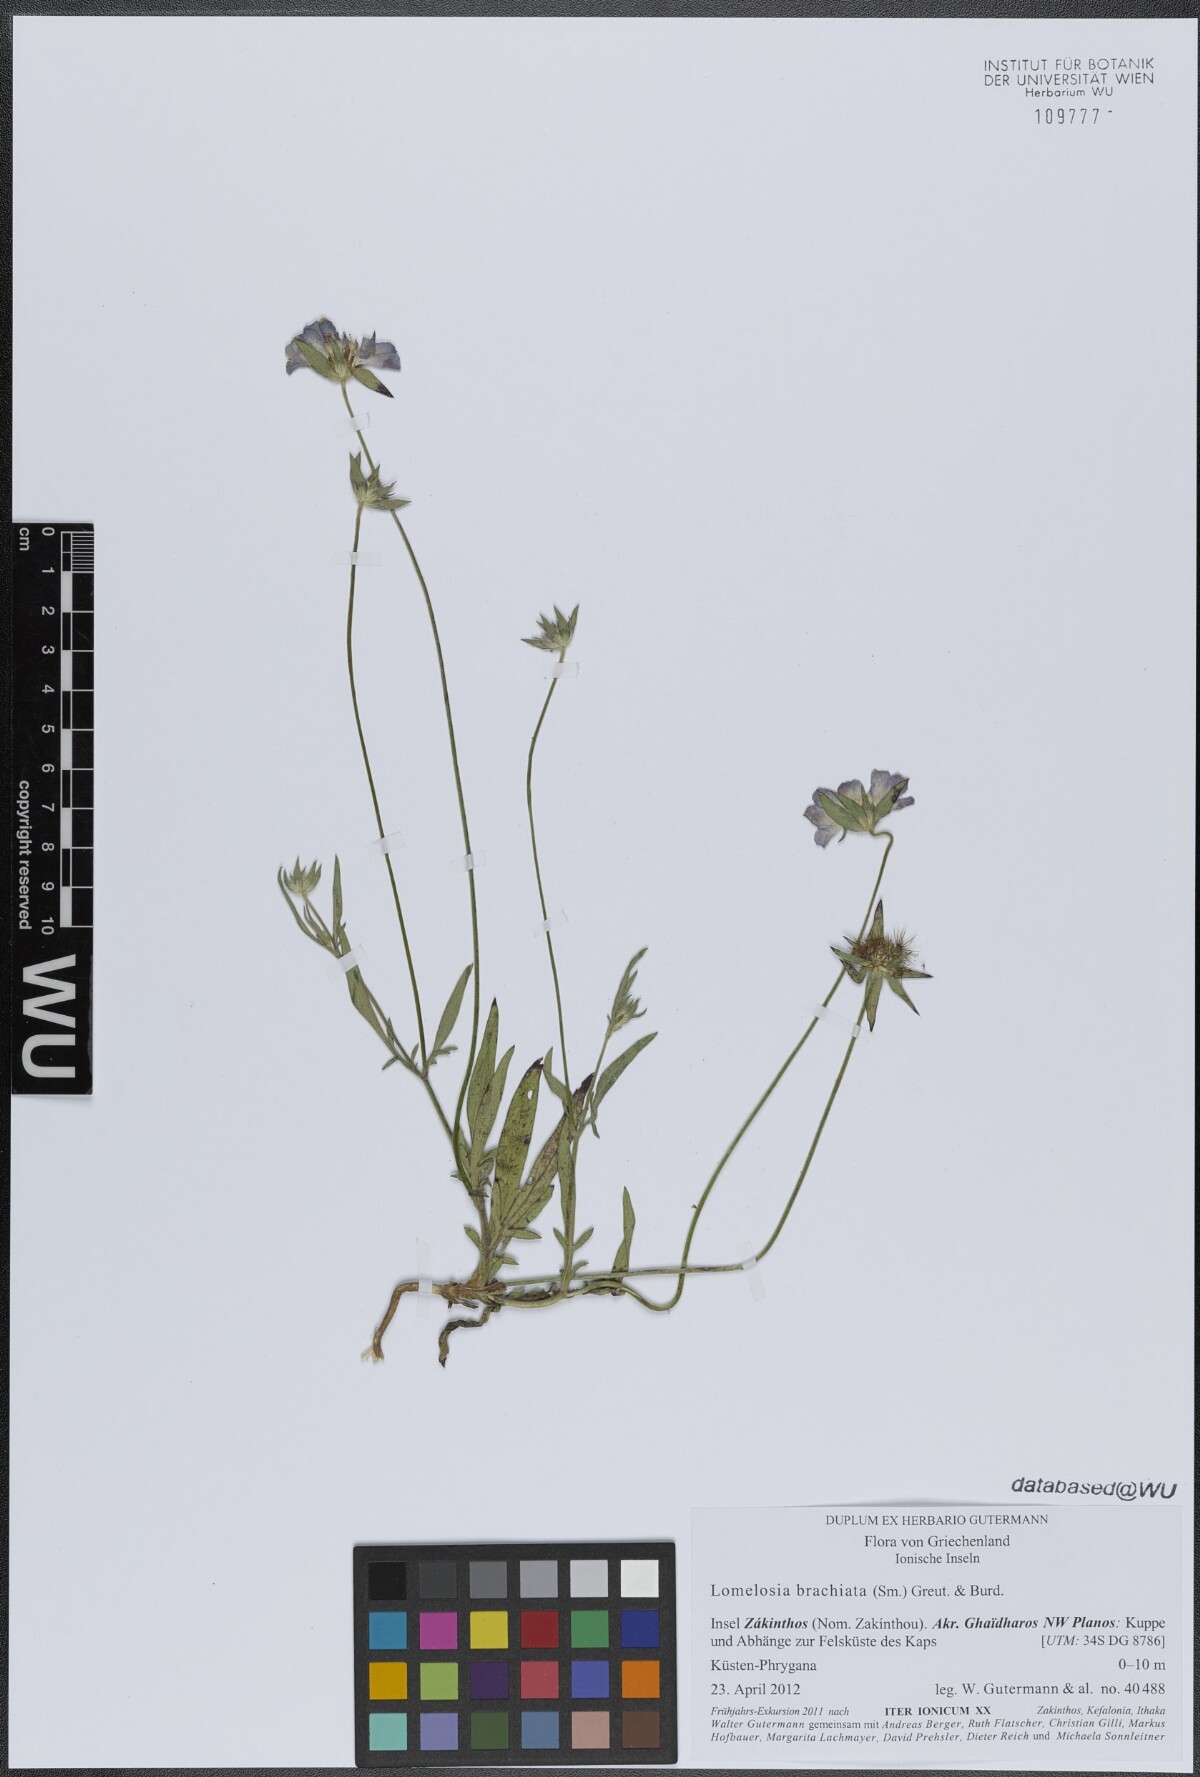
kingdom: Plantae
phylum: Tracheophyta
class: Magnoliopsida
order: Dipsacales
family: Caprifoliaceae
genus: Lomelosia
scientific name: Lomelosia brachiata
